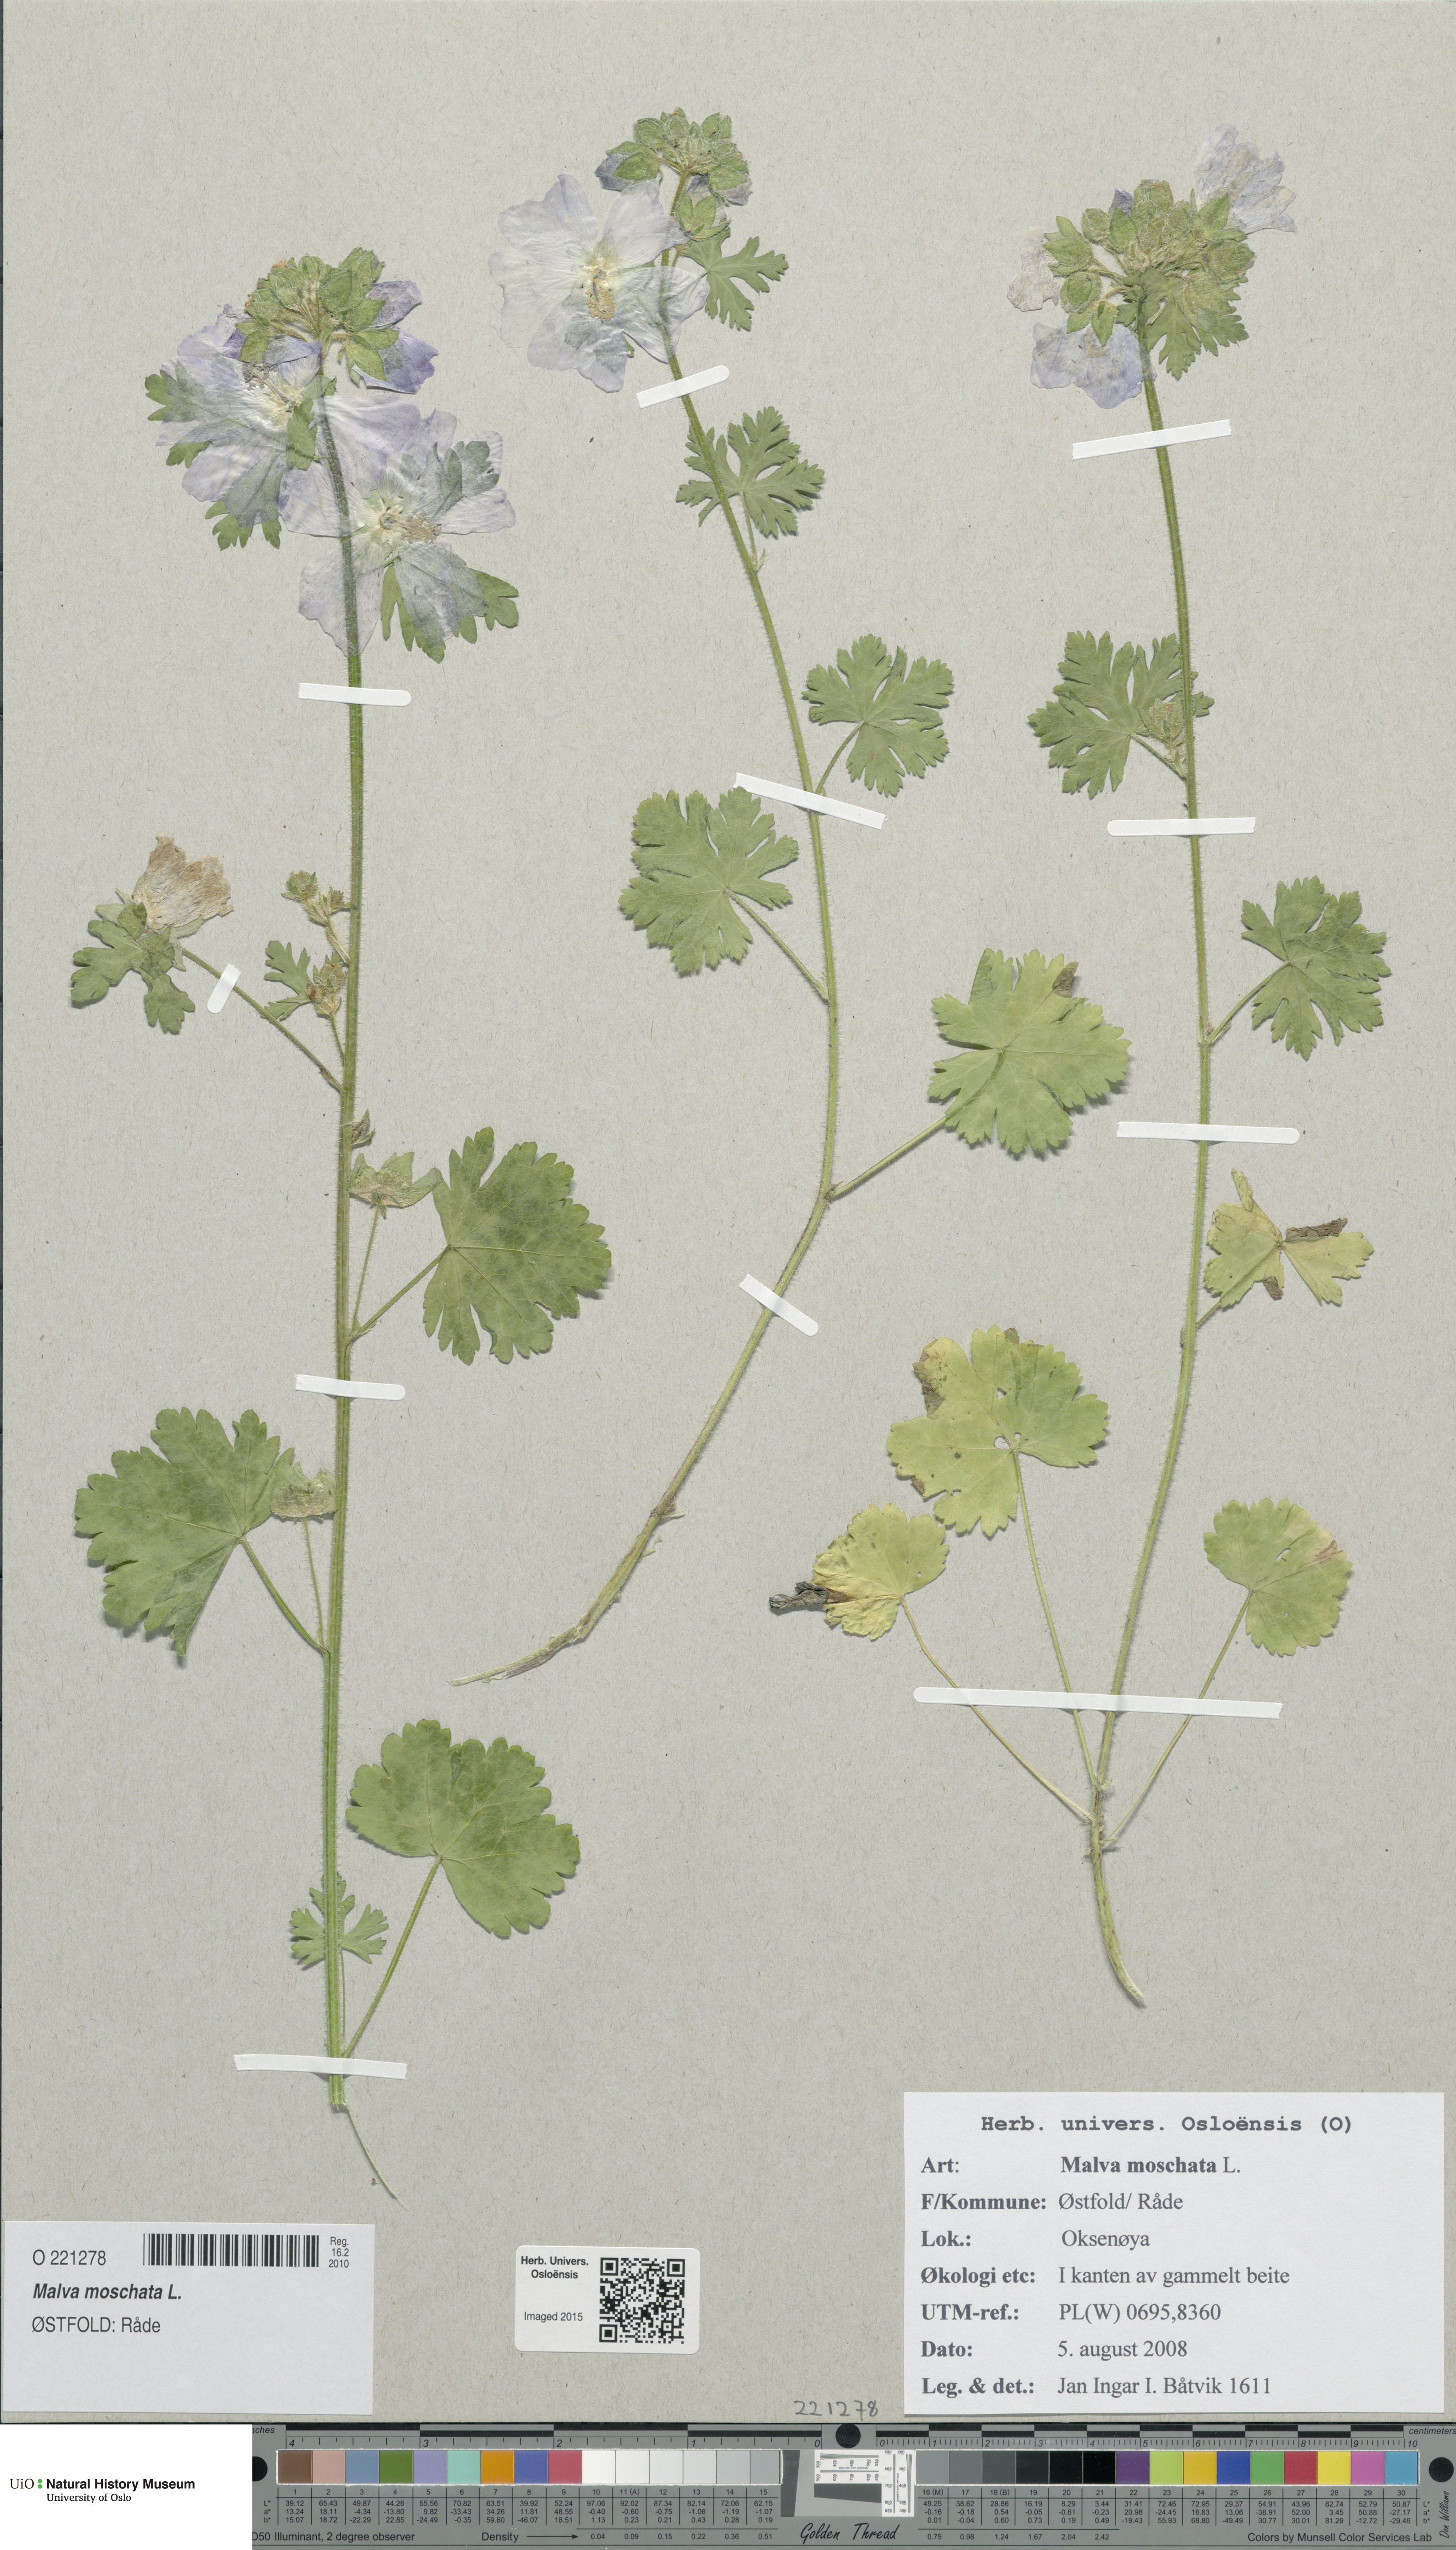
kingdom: Plantae
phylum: Tracheophyta
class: Magnoliopsida
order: Malvales
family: Malvaceae
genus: Malva
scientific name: Malva moschata
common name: Musk mallow
